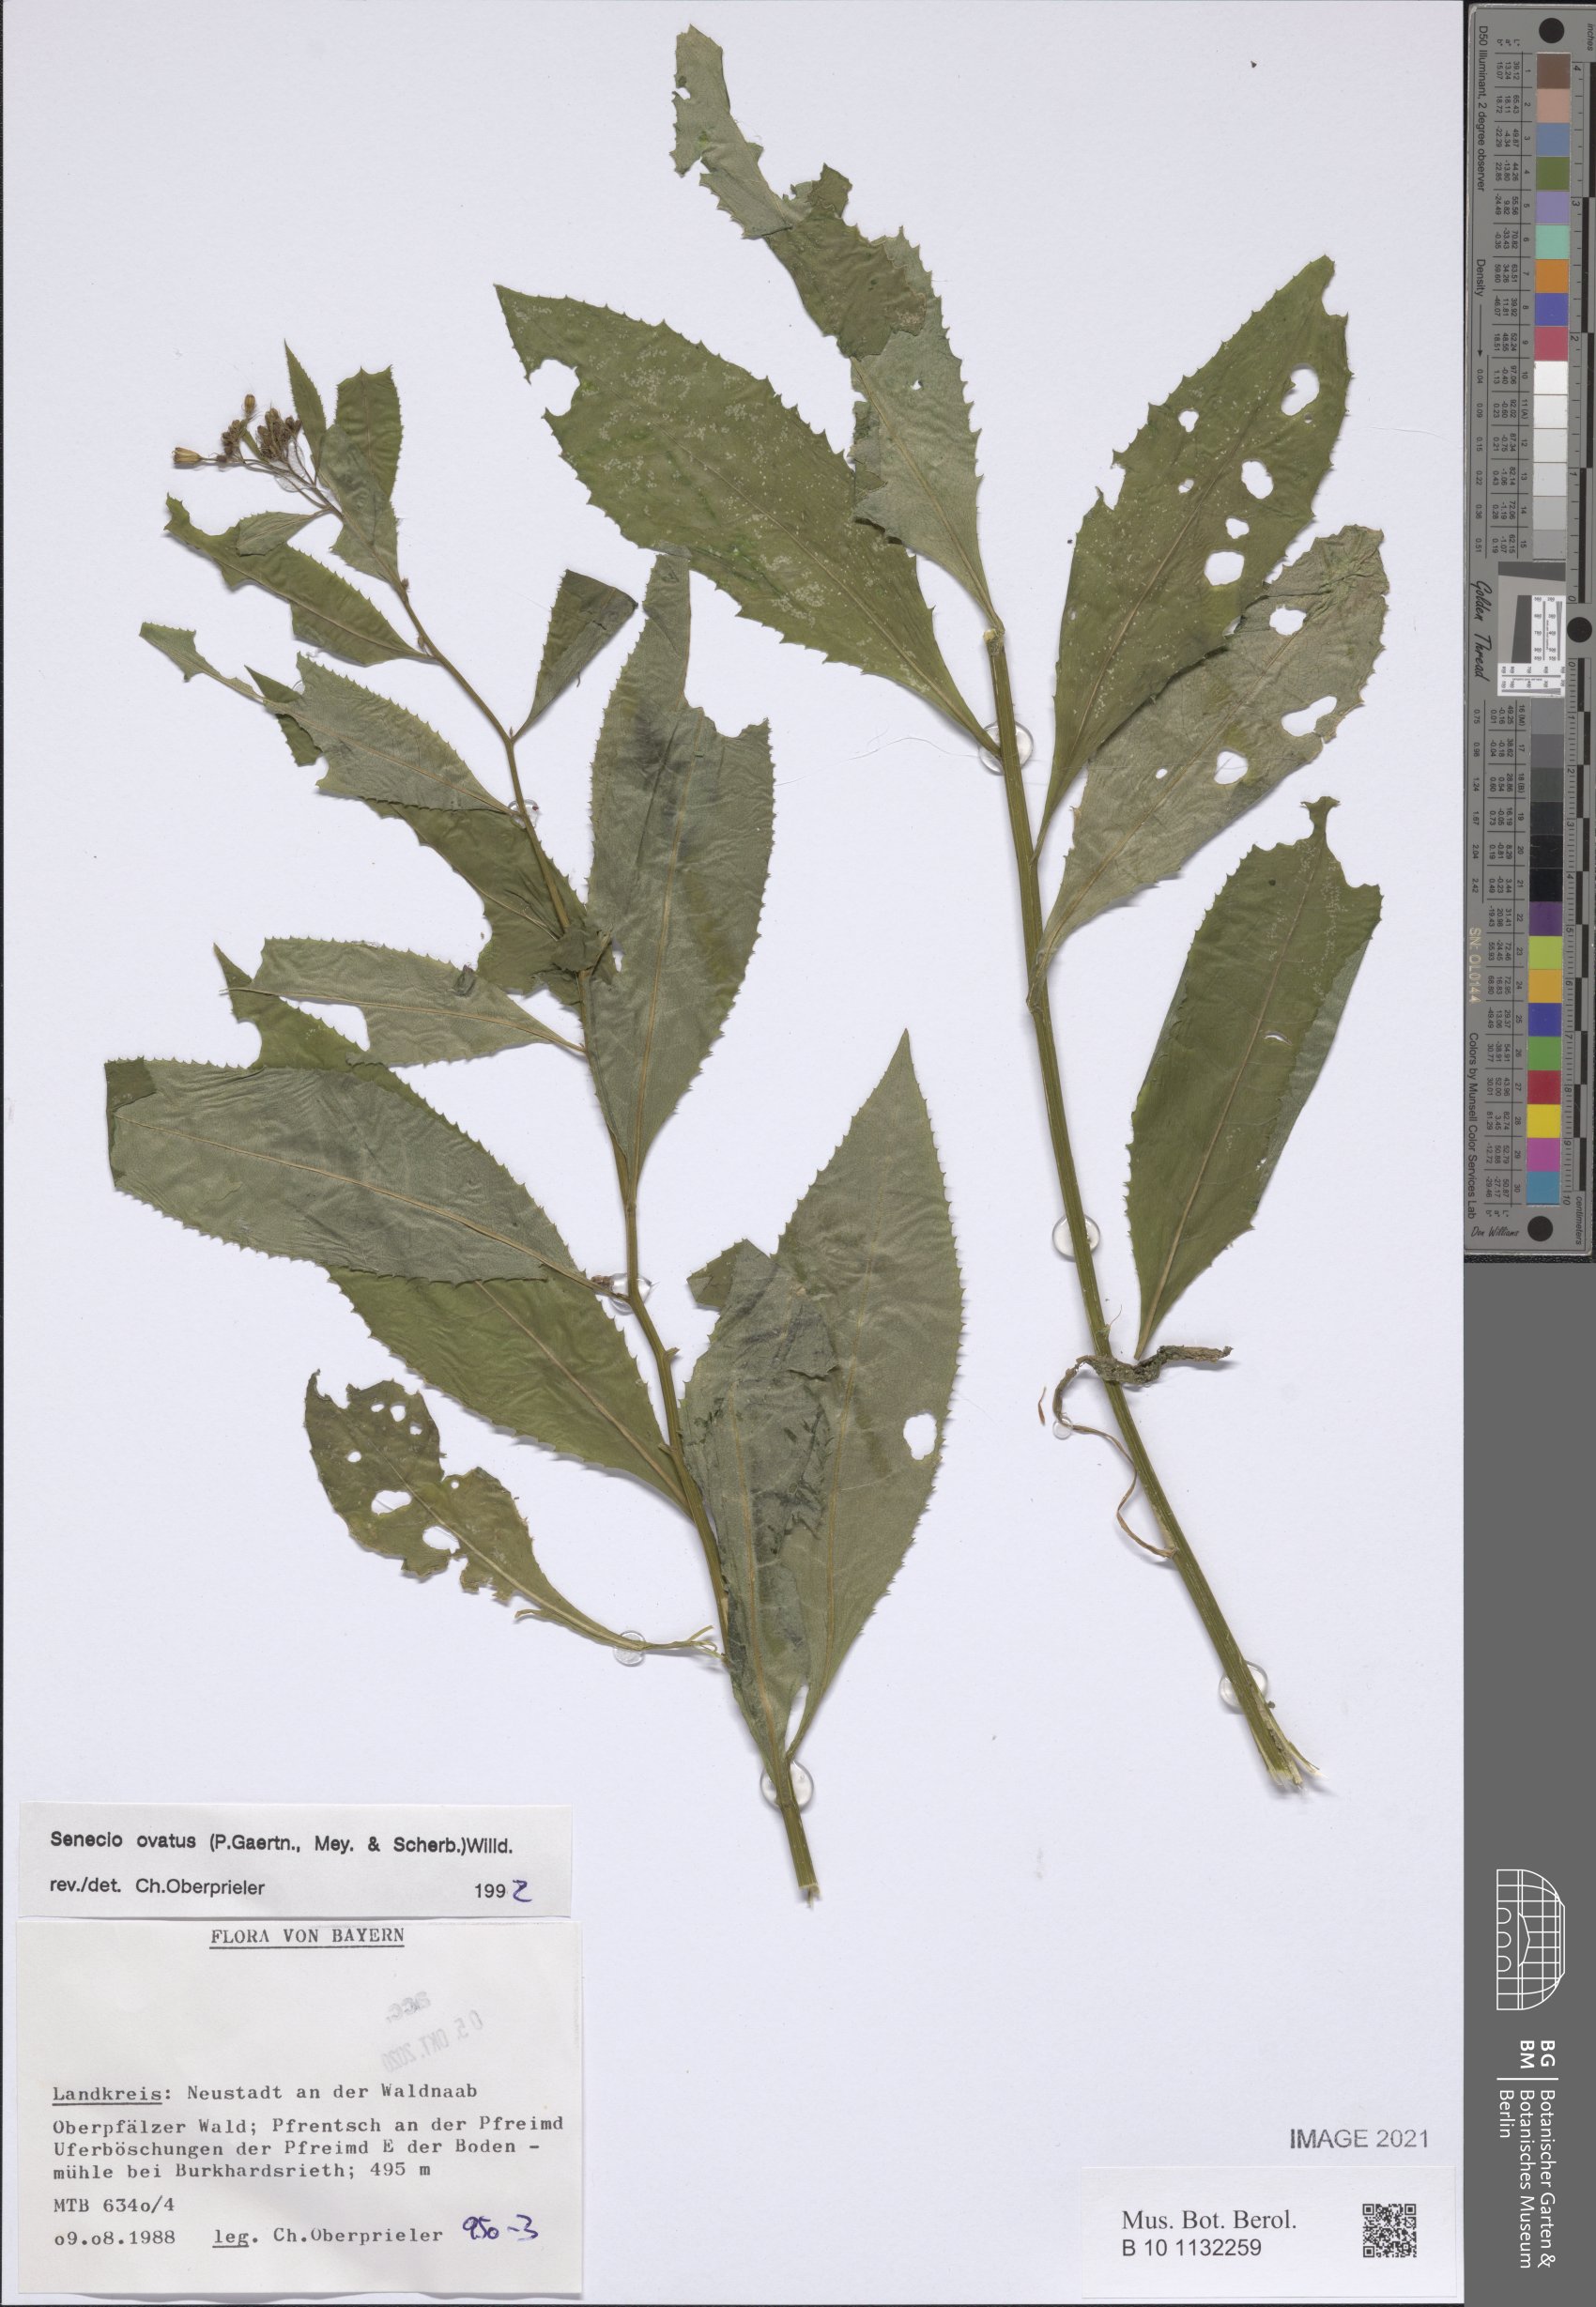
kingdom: Plantae
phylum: Tracheophyta
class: Magnoliopsida
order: Asterales
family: Asteraceae
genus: Senecio
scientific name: Senecio ovatus
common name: Wood ragwort
